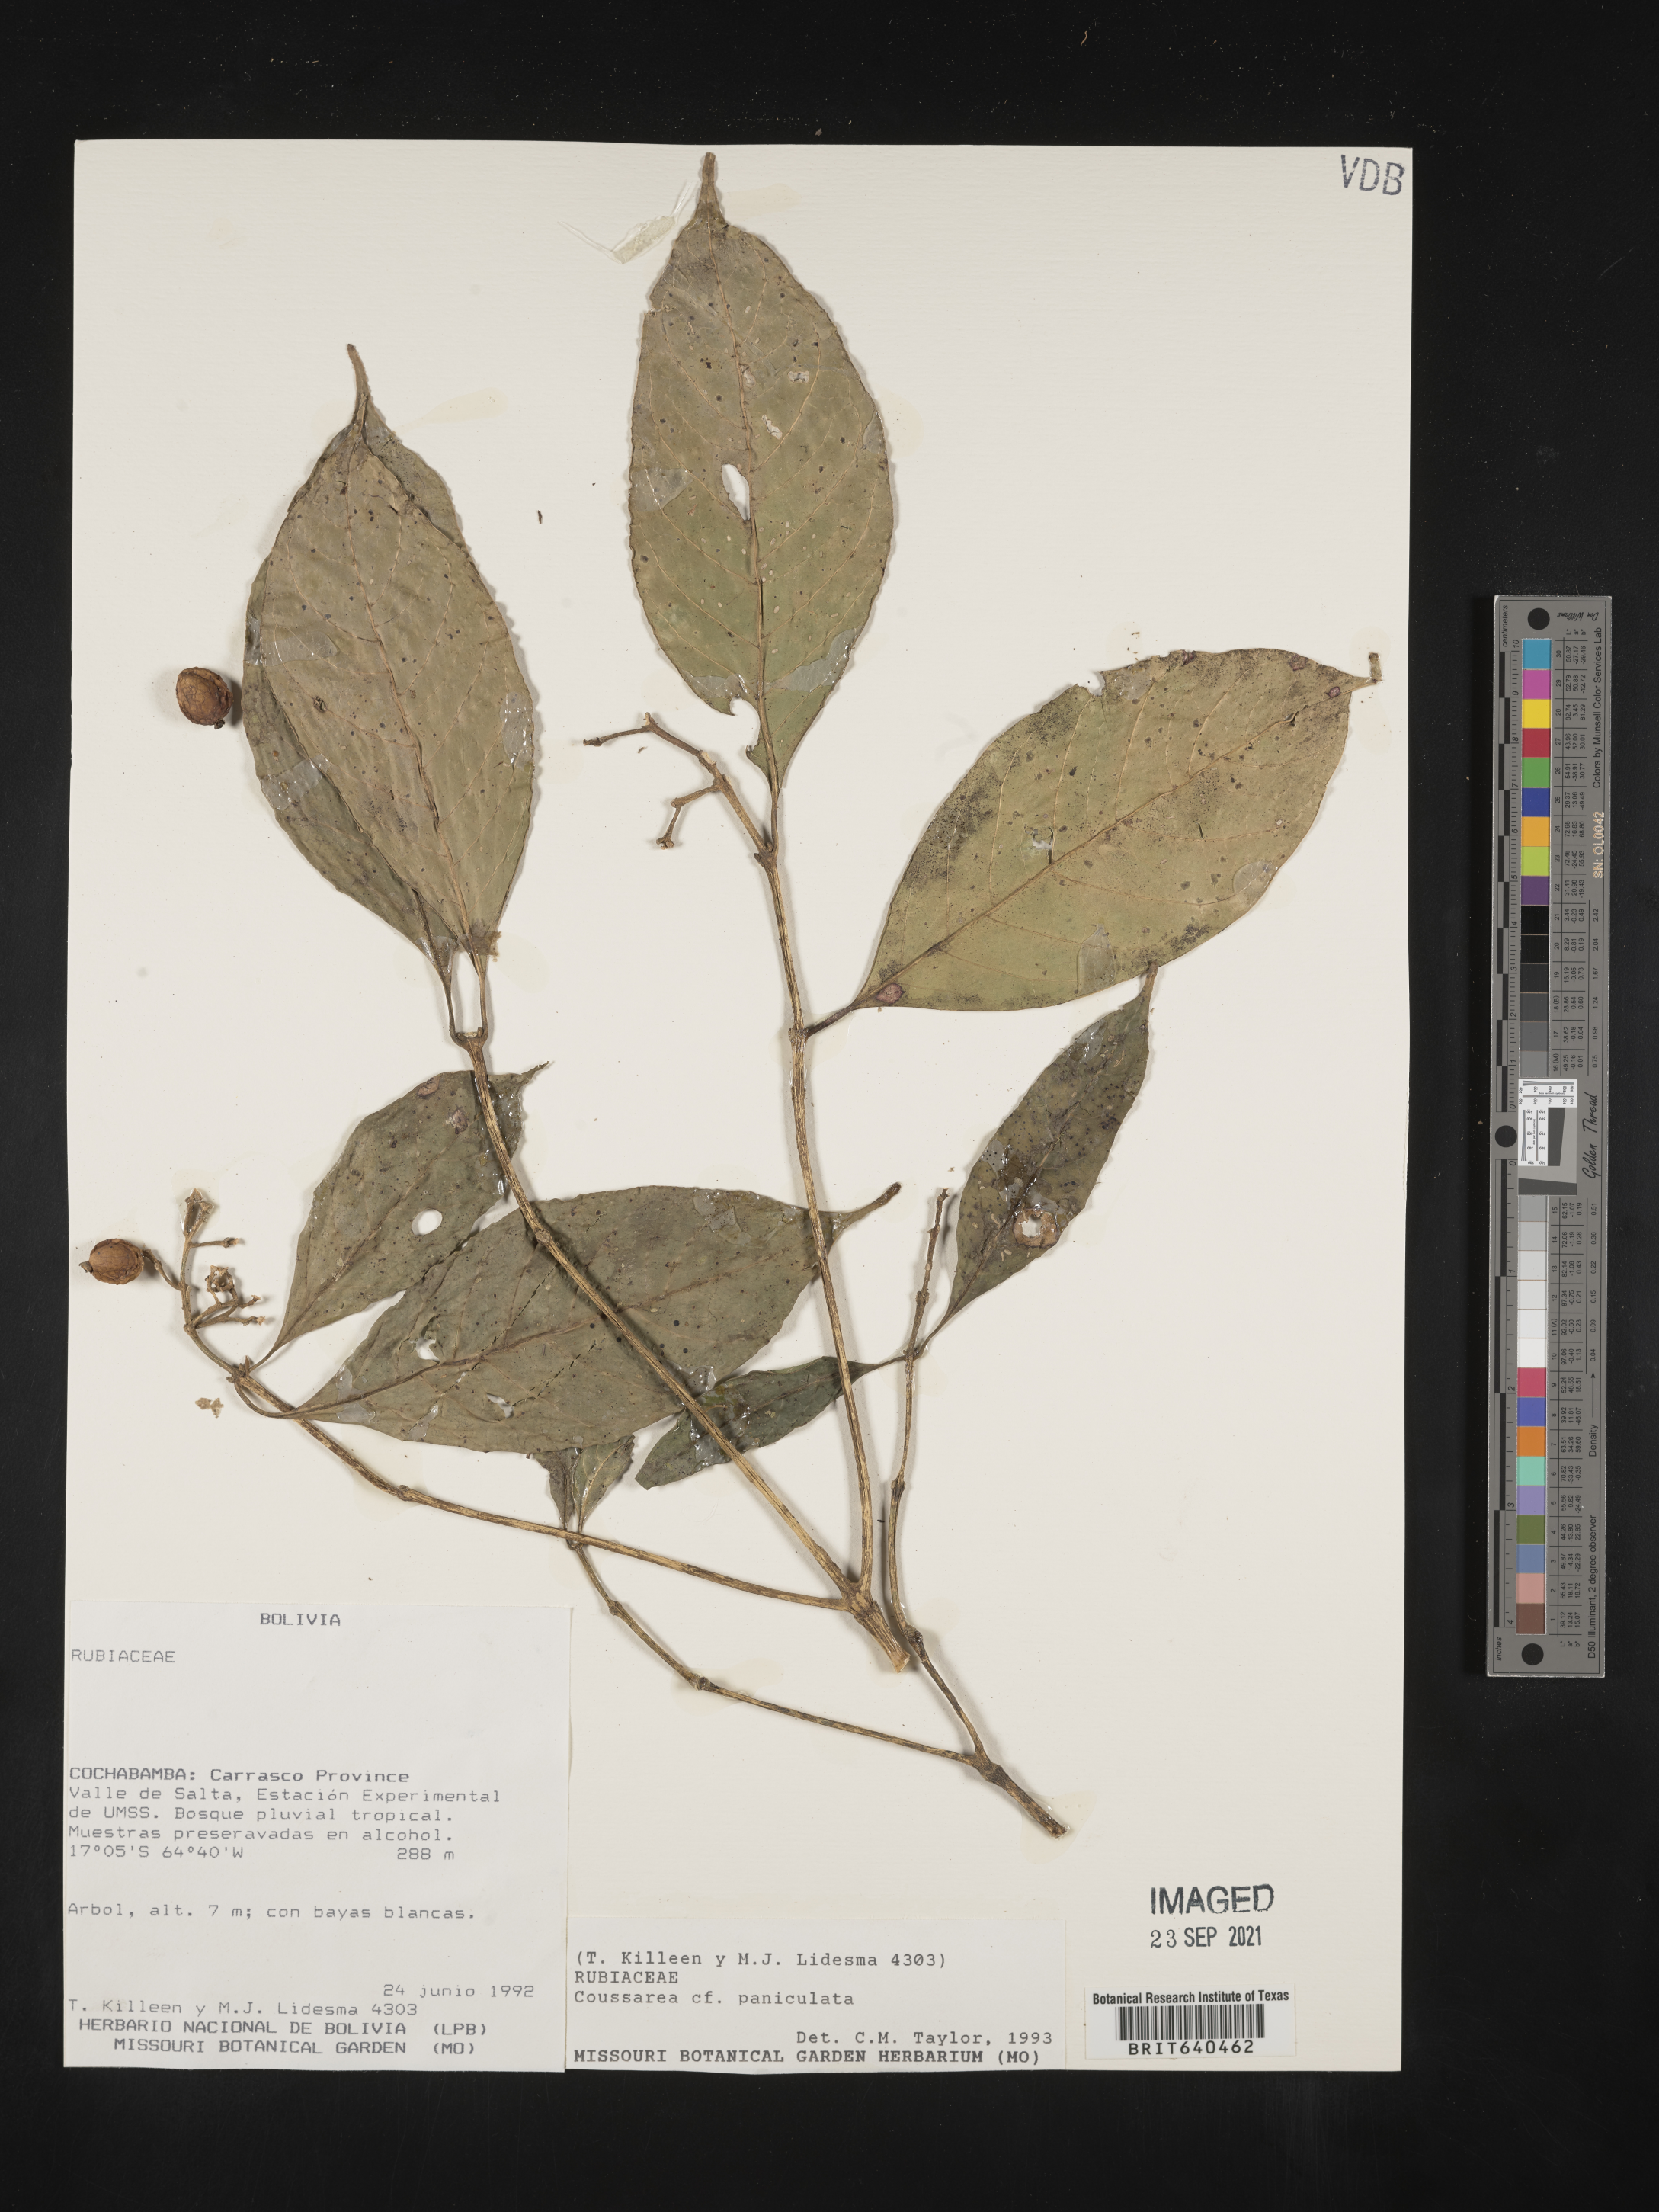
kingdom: Plantae
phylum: Tracheophyta
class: Magnoliopsida
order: Gentianales
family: Rubiaceae
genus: Coussarea
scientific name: Coussarea
